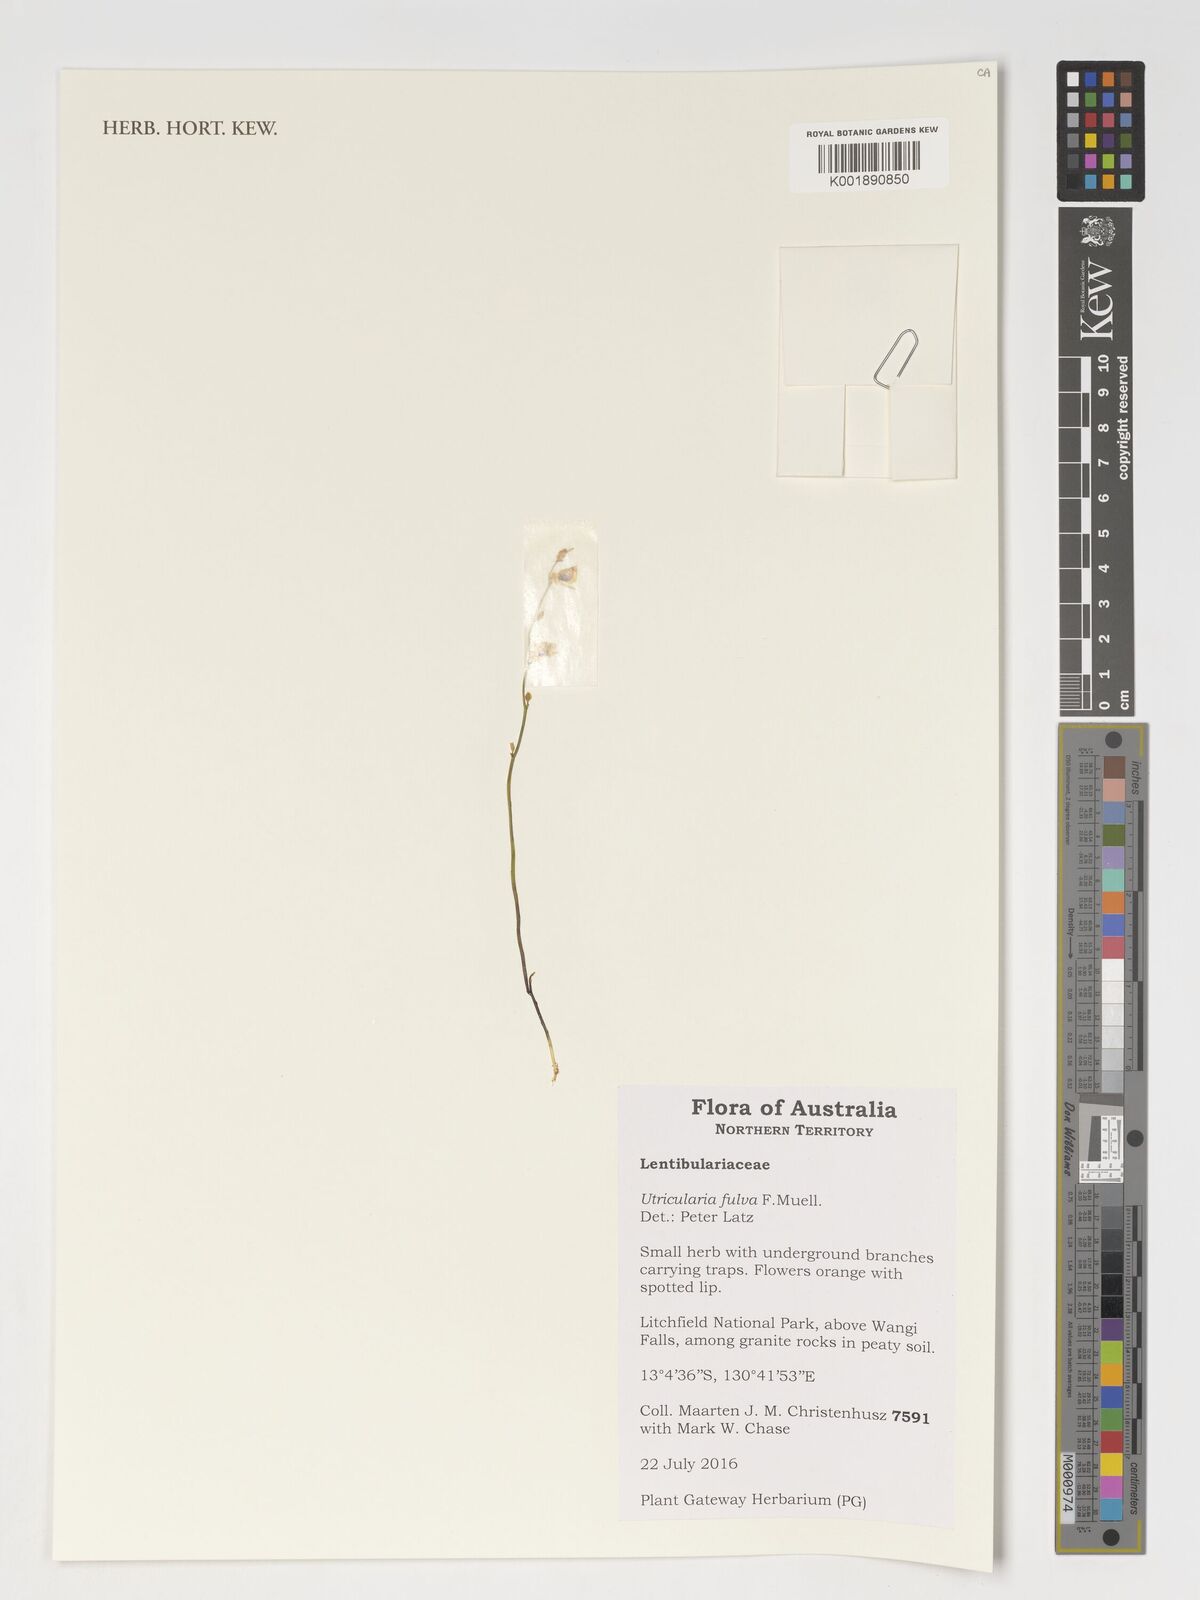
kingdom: Plantae
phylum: Tracheophyta
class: Magnoliopsida
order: Lamiales
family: Lentibulariaceae
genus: Utricularia
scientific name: Utricularia fulva
